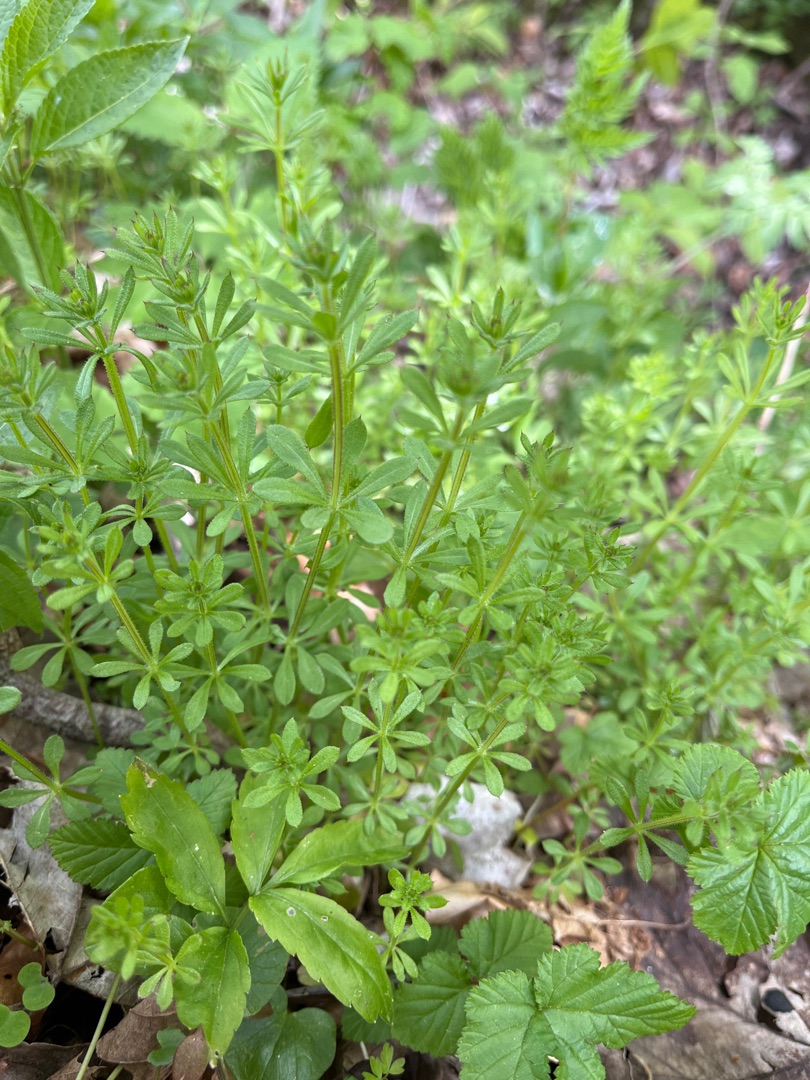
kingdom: Plantae
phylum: Tracheophyta
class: Magnoliopsida
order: Gentianales
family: Rubiaceae
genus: Galium
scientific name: Galium aparine
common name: Burre-snerre
